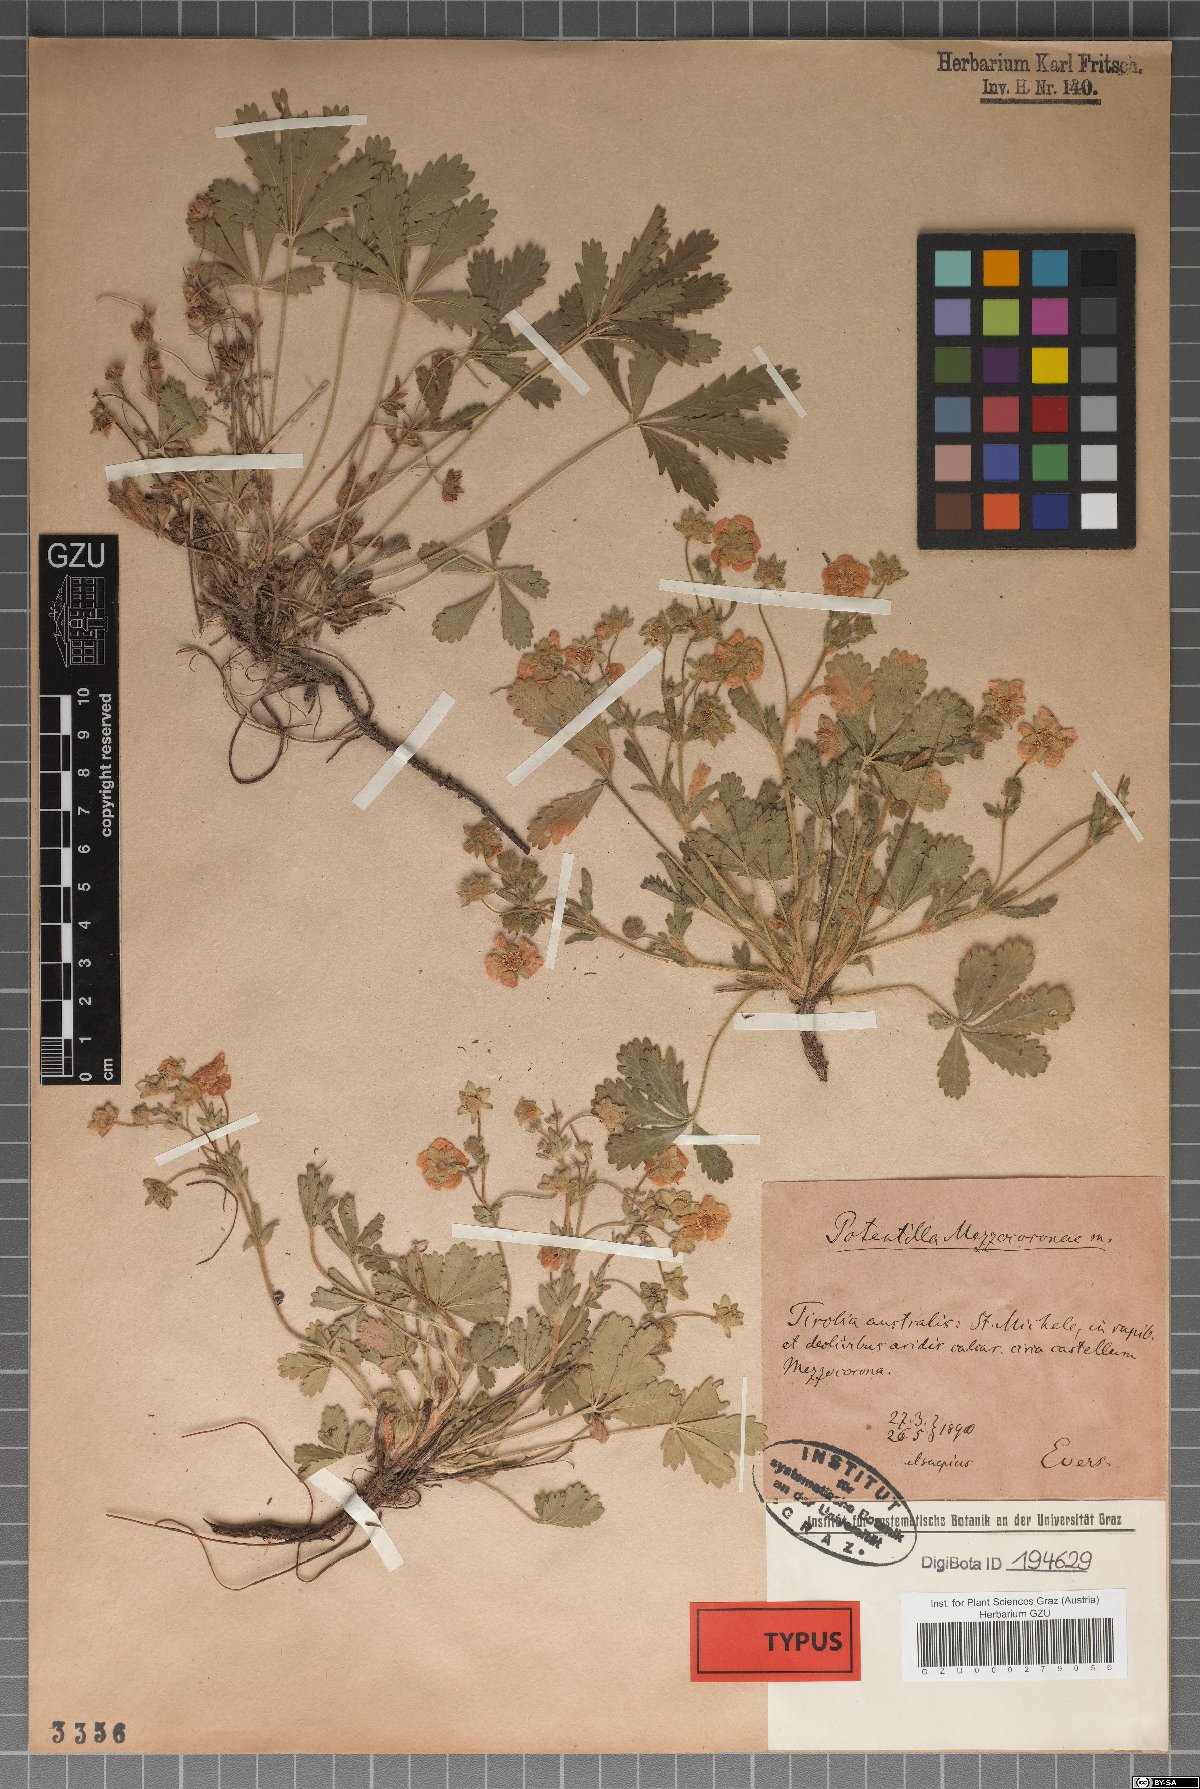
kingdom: Plantae
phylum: Tracheophyta
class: Magnoliopsida
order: Rosales
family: Rosaceae
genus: Potentilla
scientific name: Potentilla pusilla
